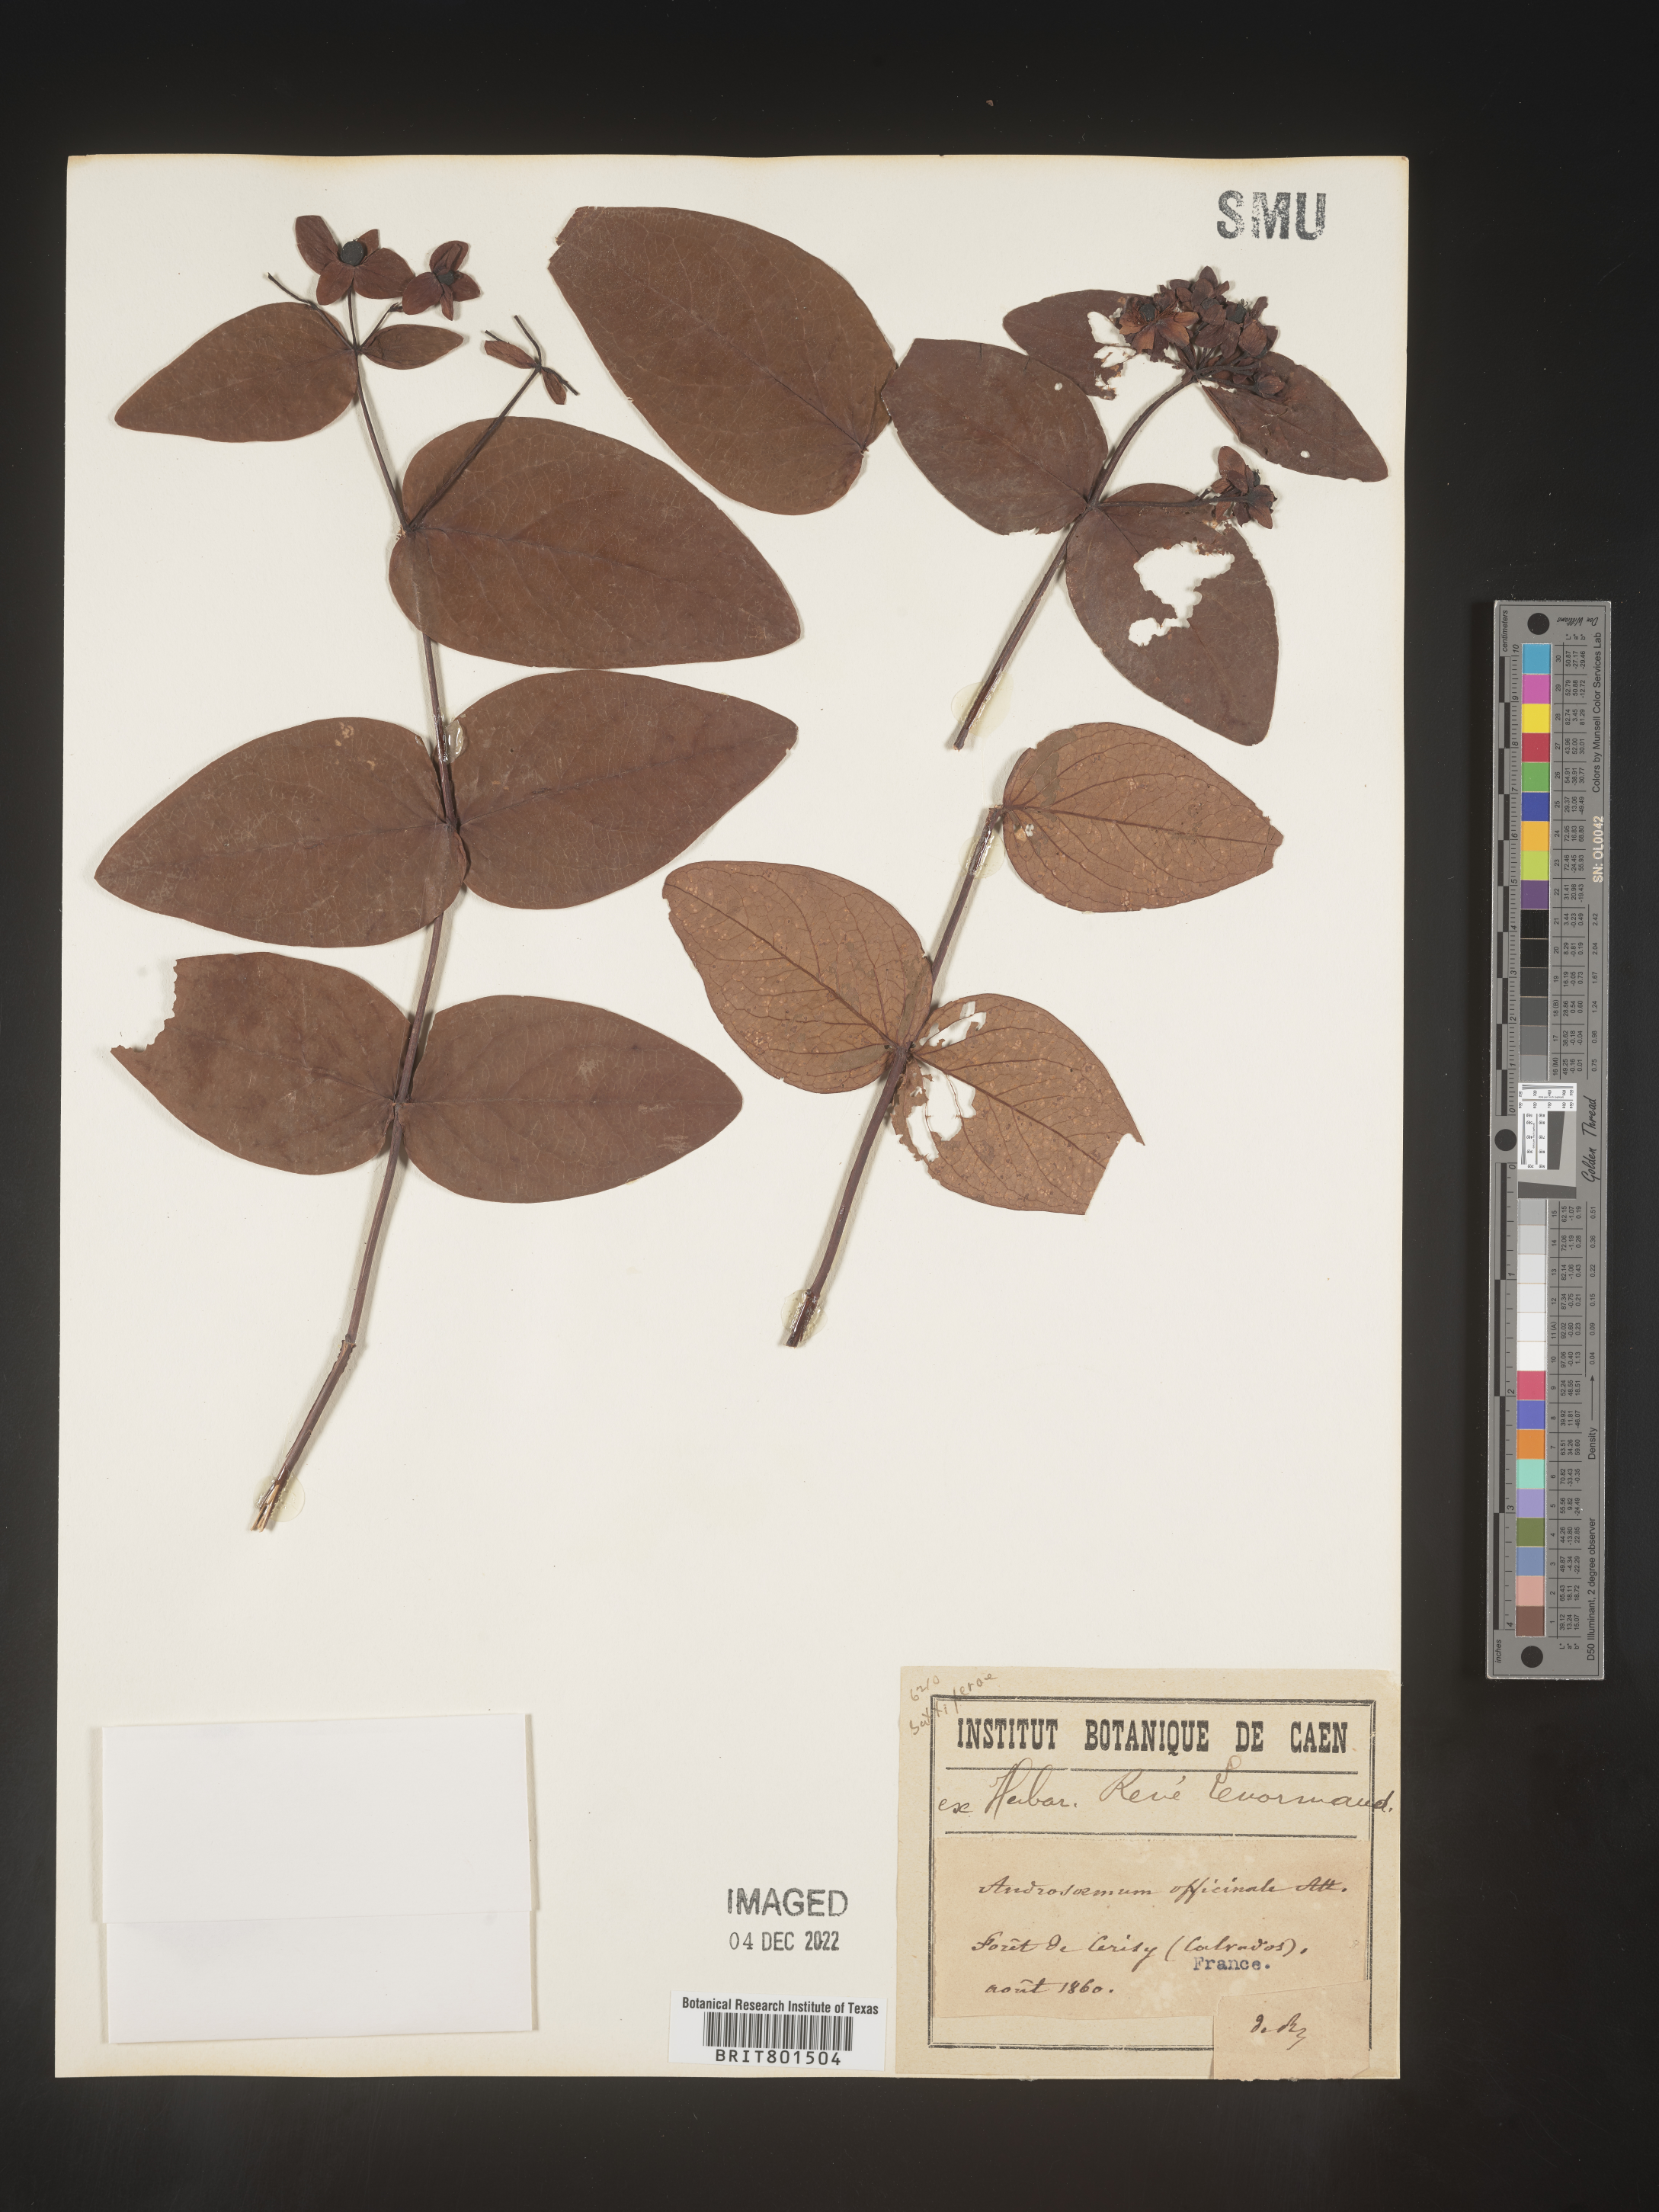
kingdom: Plantae
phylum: Tracheophyta
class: Magnoliopsida
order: Malpighiales
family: Hypericaceae
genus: Hypericum
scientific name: Hypericum
